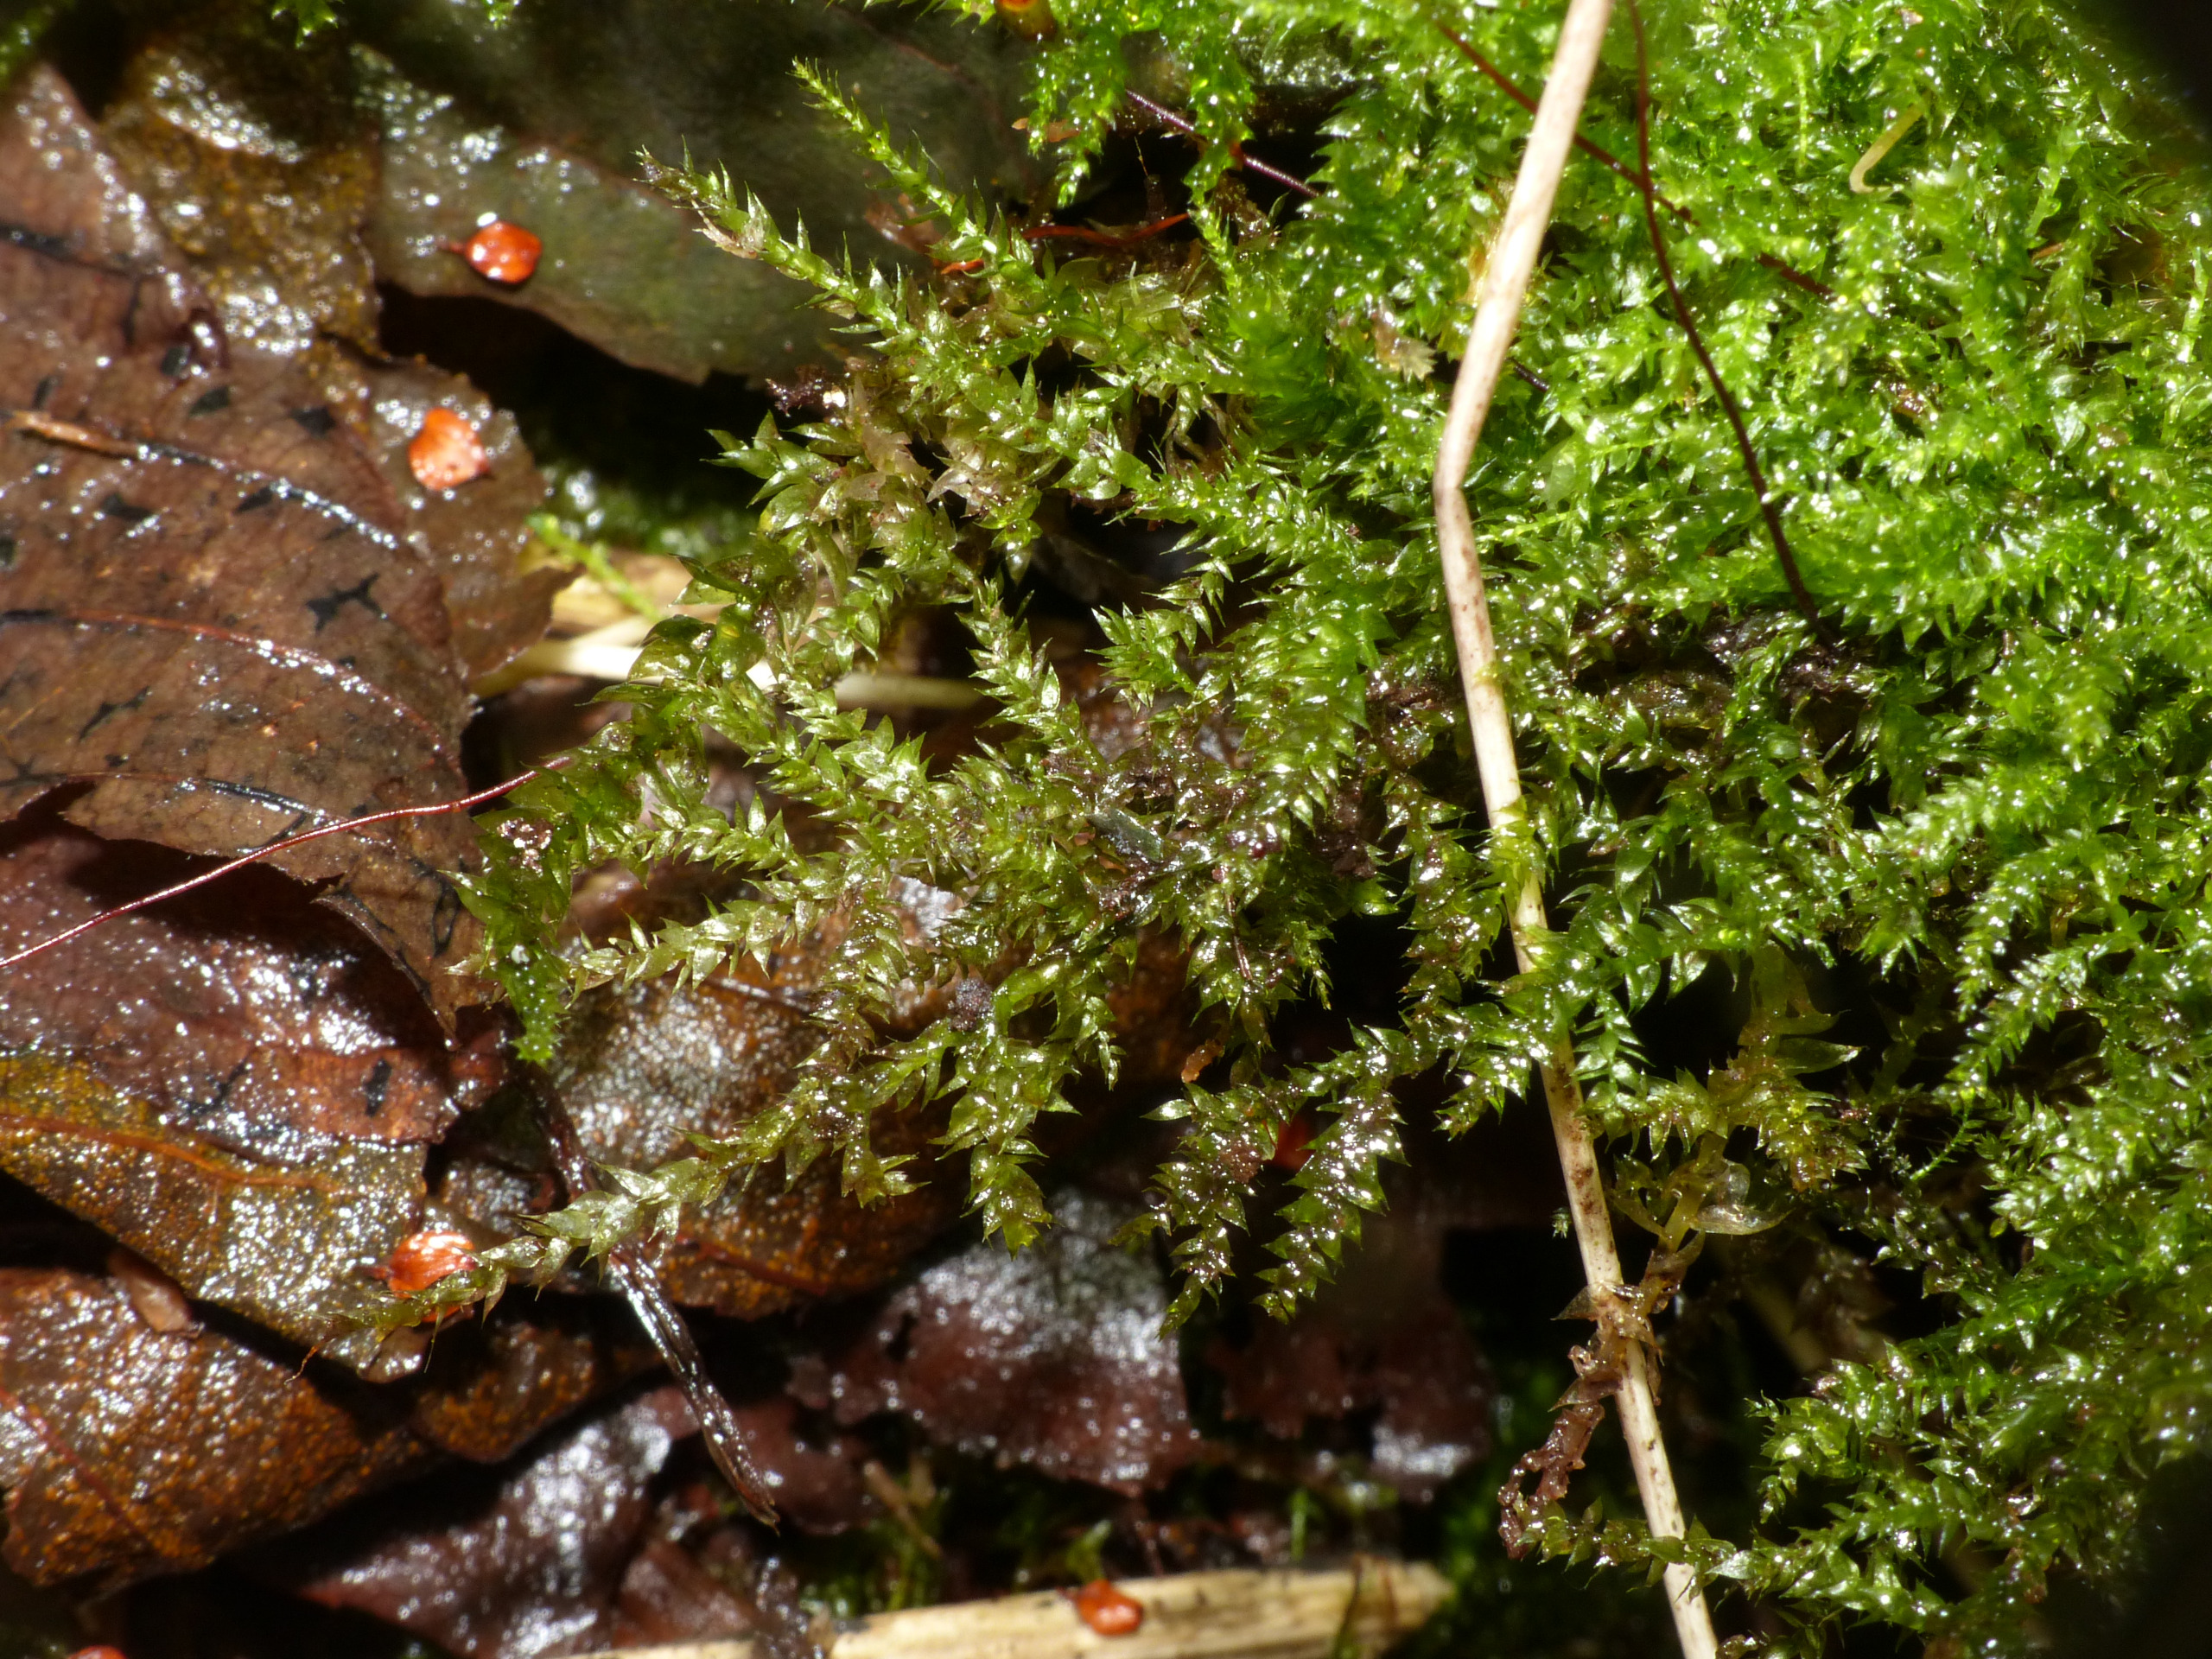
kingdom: Plantae
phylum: Bryophyta
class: Bryopsida
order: Hypnales
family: Brachytheciaceae
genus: Brachythecium
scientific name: Brachythecium rutabulum
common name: Almindelig kortkapsel
